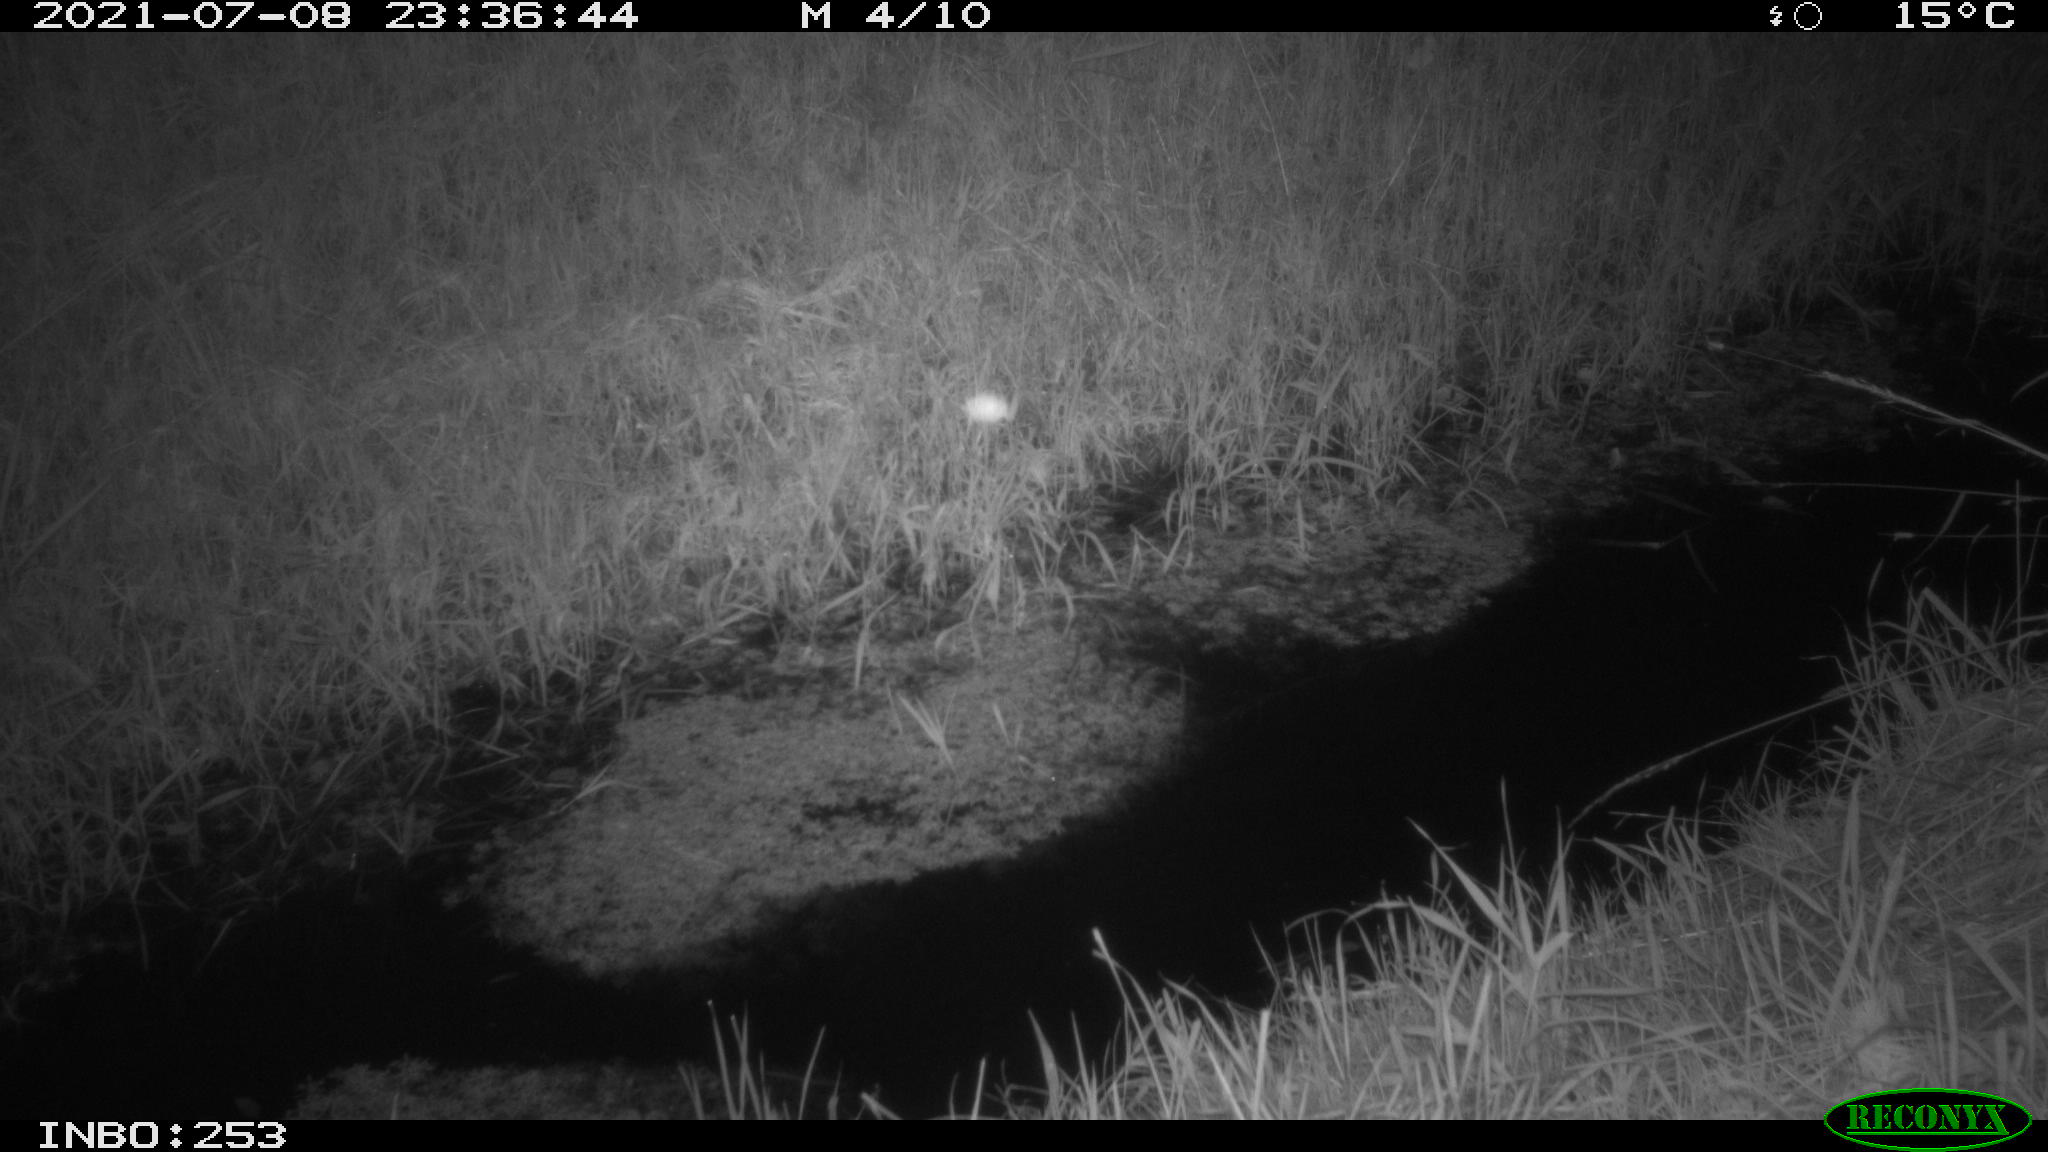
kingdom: Animalia
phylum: Chordata
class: Mammalia
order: Carnivora
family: Canidae
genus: Vulpes
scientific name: Vulpes vulpes
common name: Red fox
